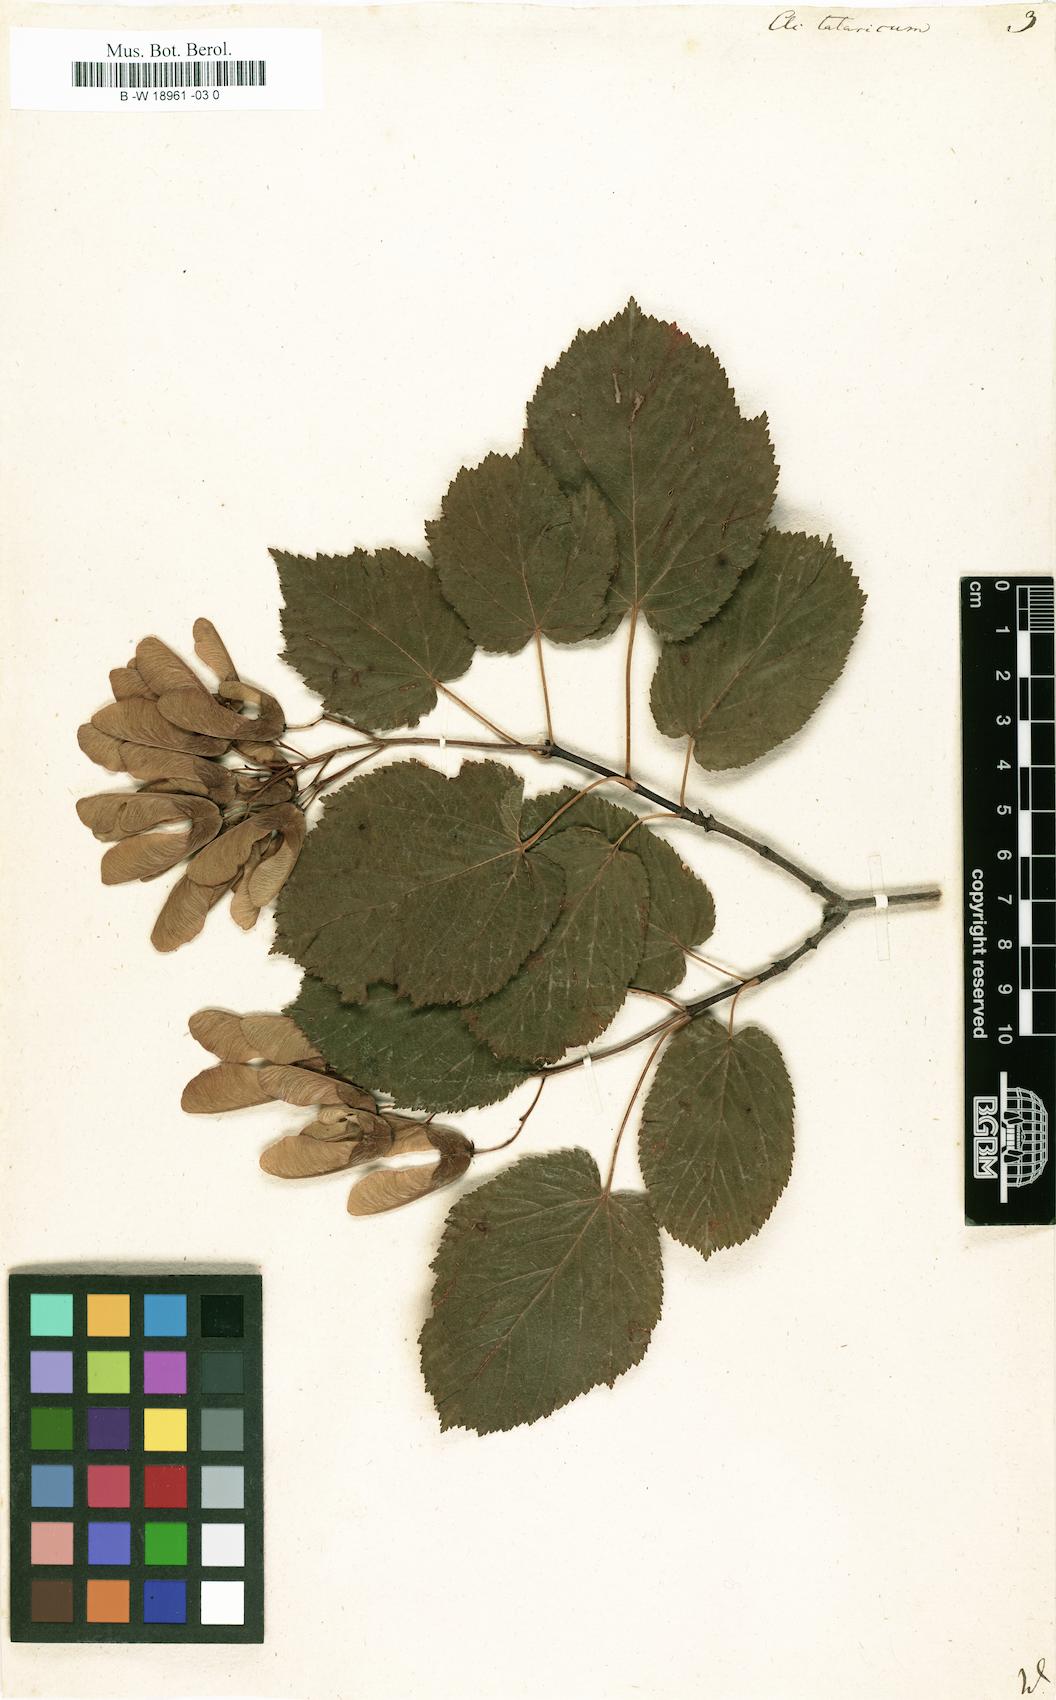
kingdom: Plantae
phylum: Tracheophyta
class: Magnoliopsida
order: Sapindales
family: Sapindaceae
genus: Acer
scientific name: Acer tataricum
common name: Tartar maple
